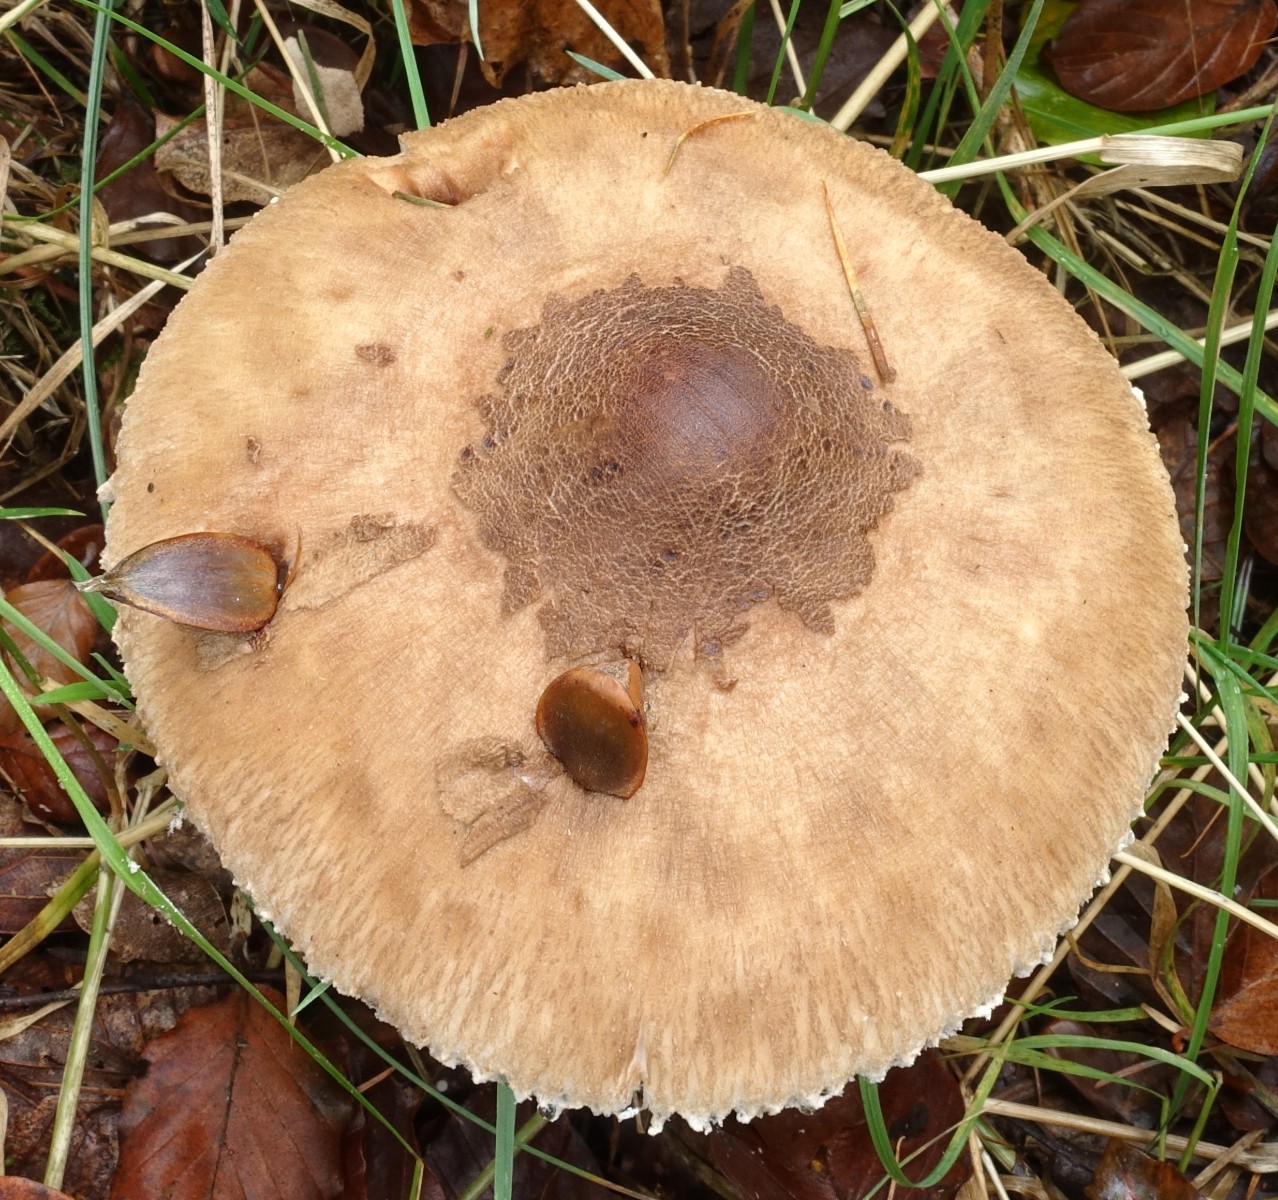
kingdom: Fungi
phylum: Basidiomycota
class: Agaricomycetes
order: Agaricales
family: Agaricaceae
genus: Macrolepiota
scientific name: Macrolepiota mastoidea
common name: puklet kæmpeparasolhat
